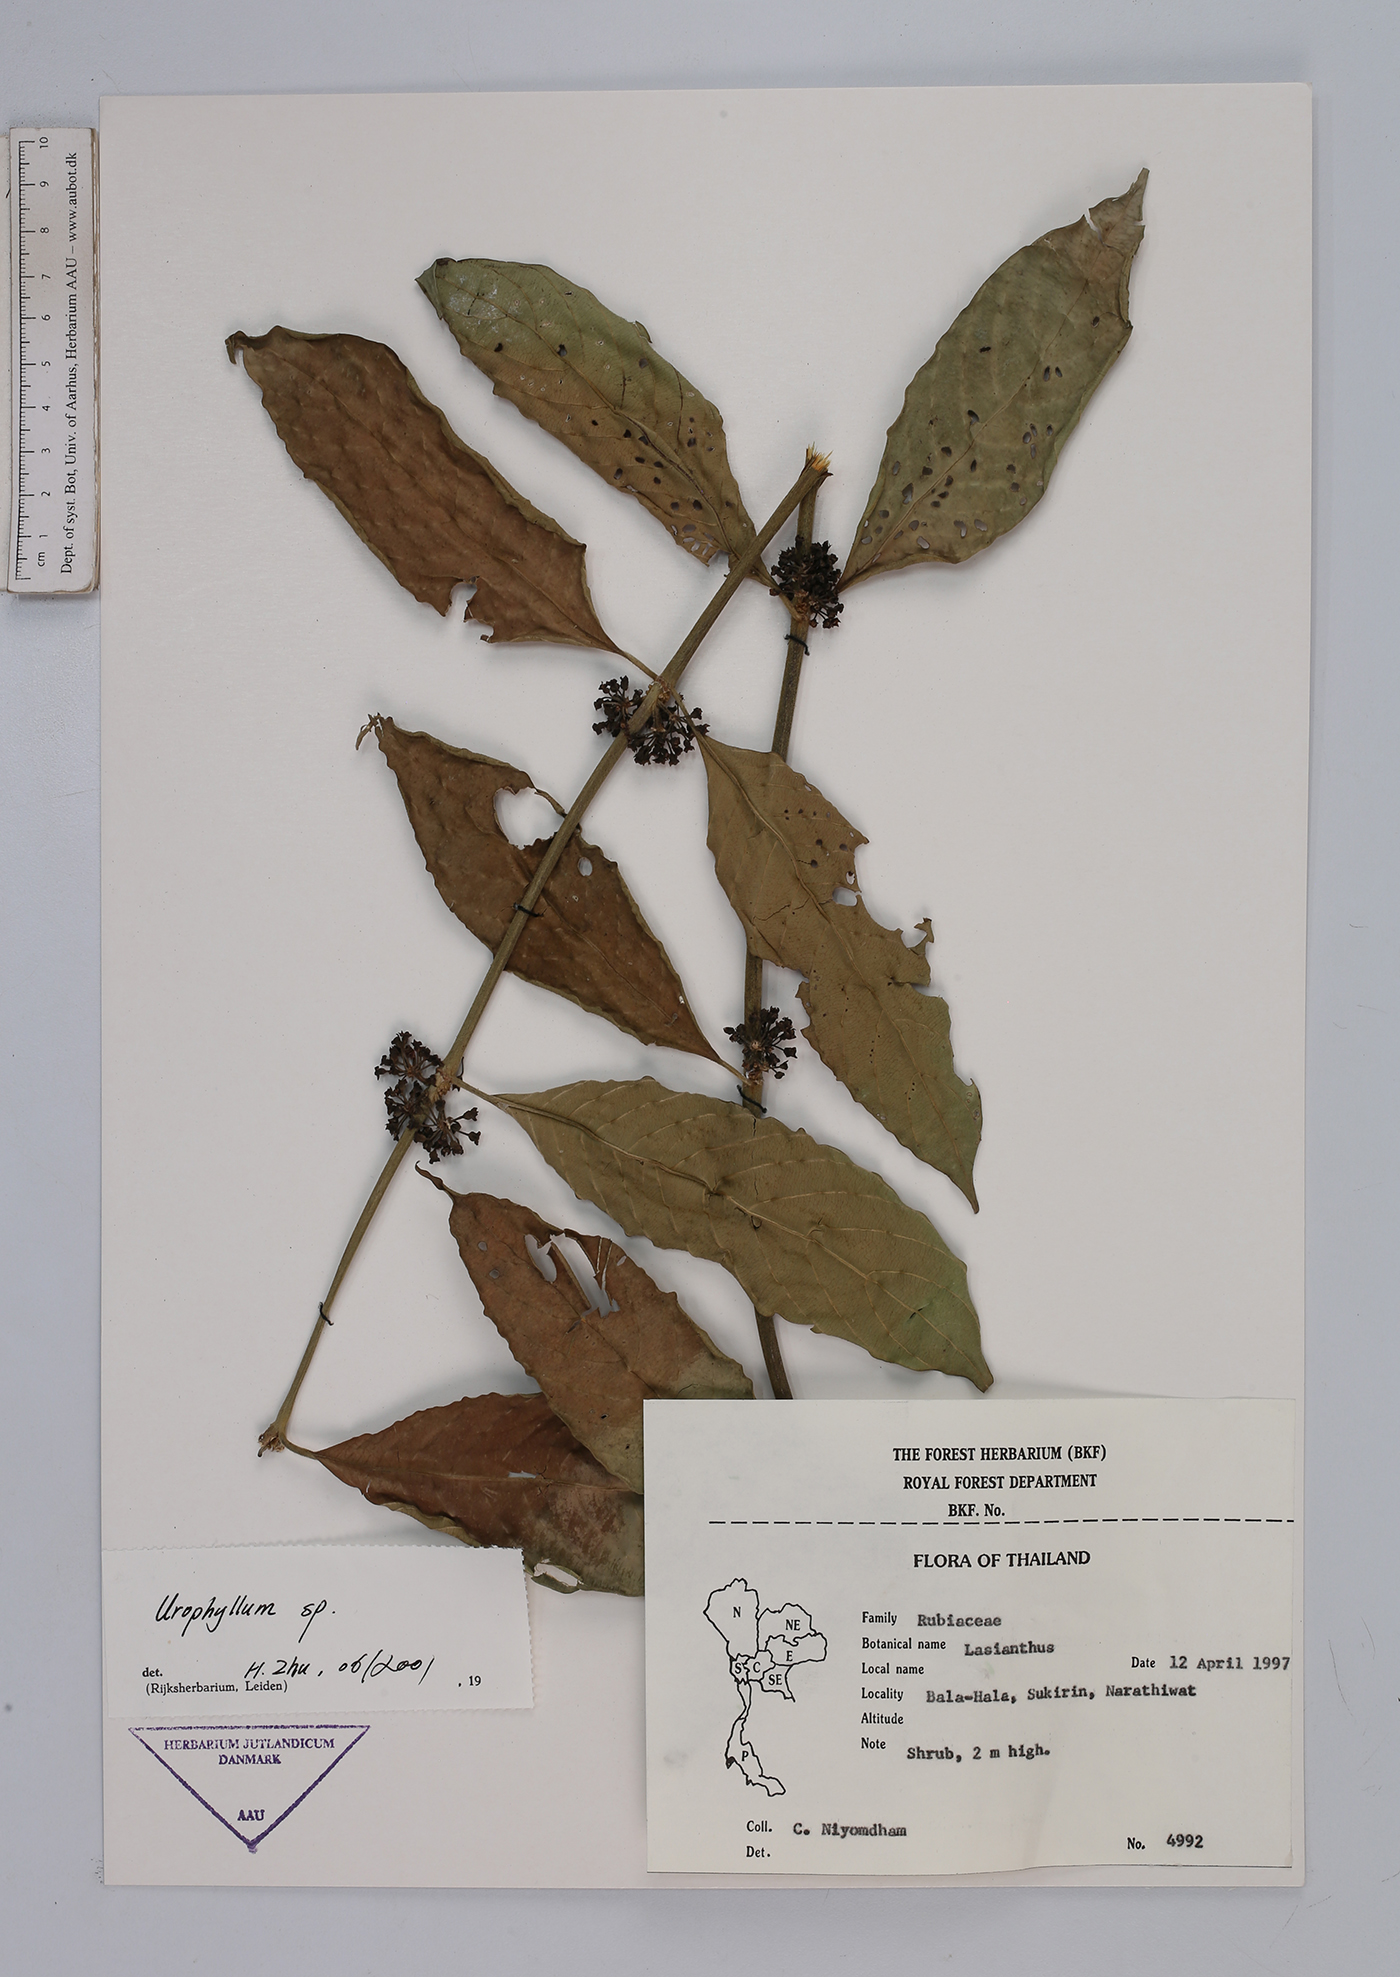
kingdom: Plantae
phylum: Tracheophyta
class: Magnoliopsida
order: Gentianales
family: Rubiaceae
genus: Urophyllum
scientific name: Urophyllum
